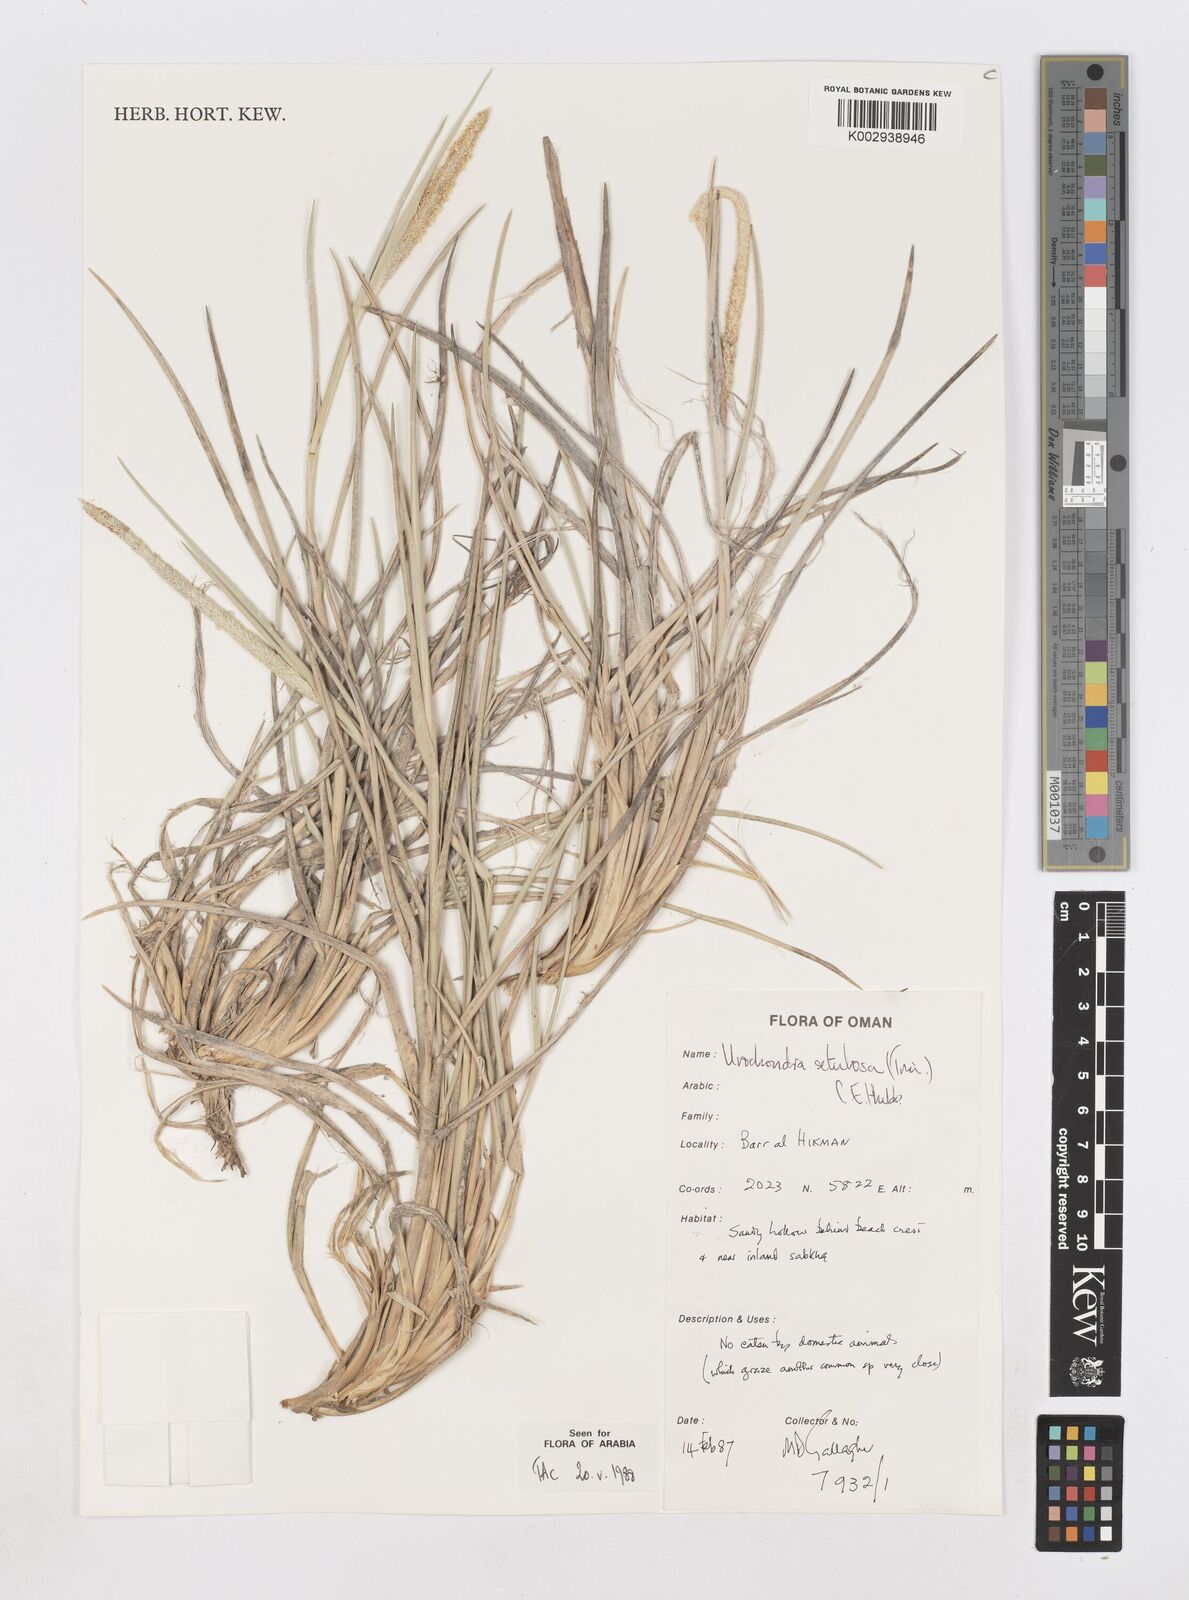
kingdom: Plantae
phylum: Tracheophyta
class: Liliopsida
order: Poales
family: Poaceae
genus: Urochondra
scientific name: Urochondra setulosa
